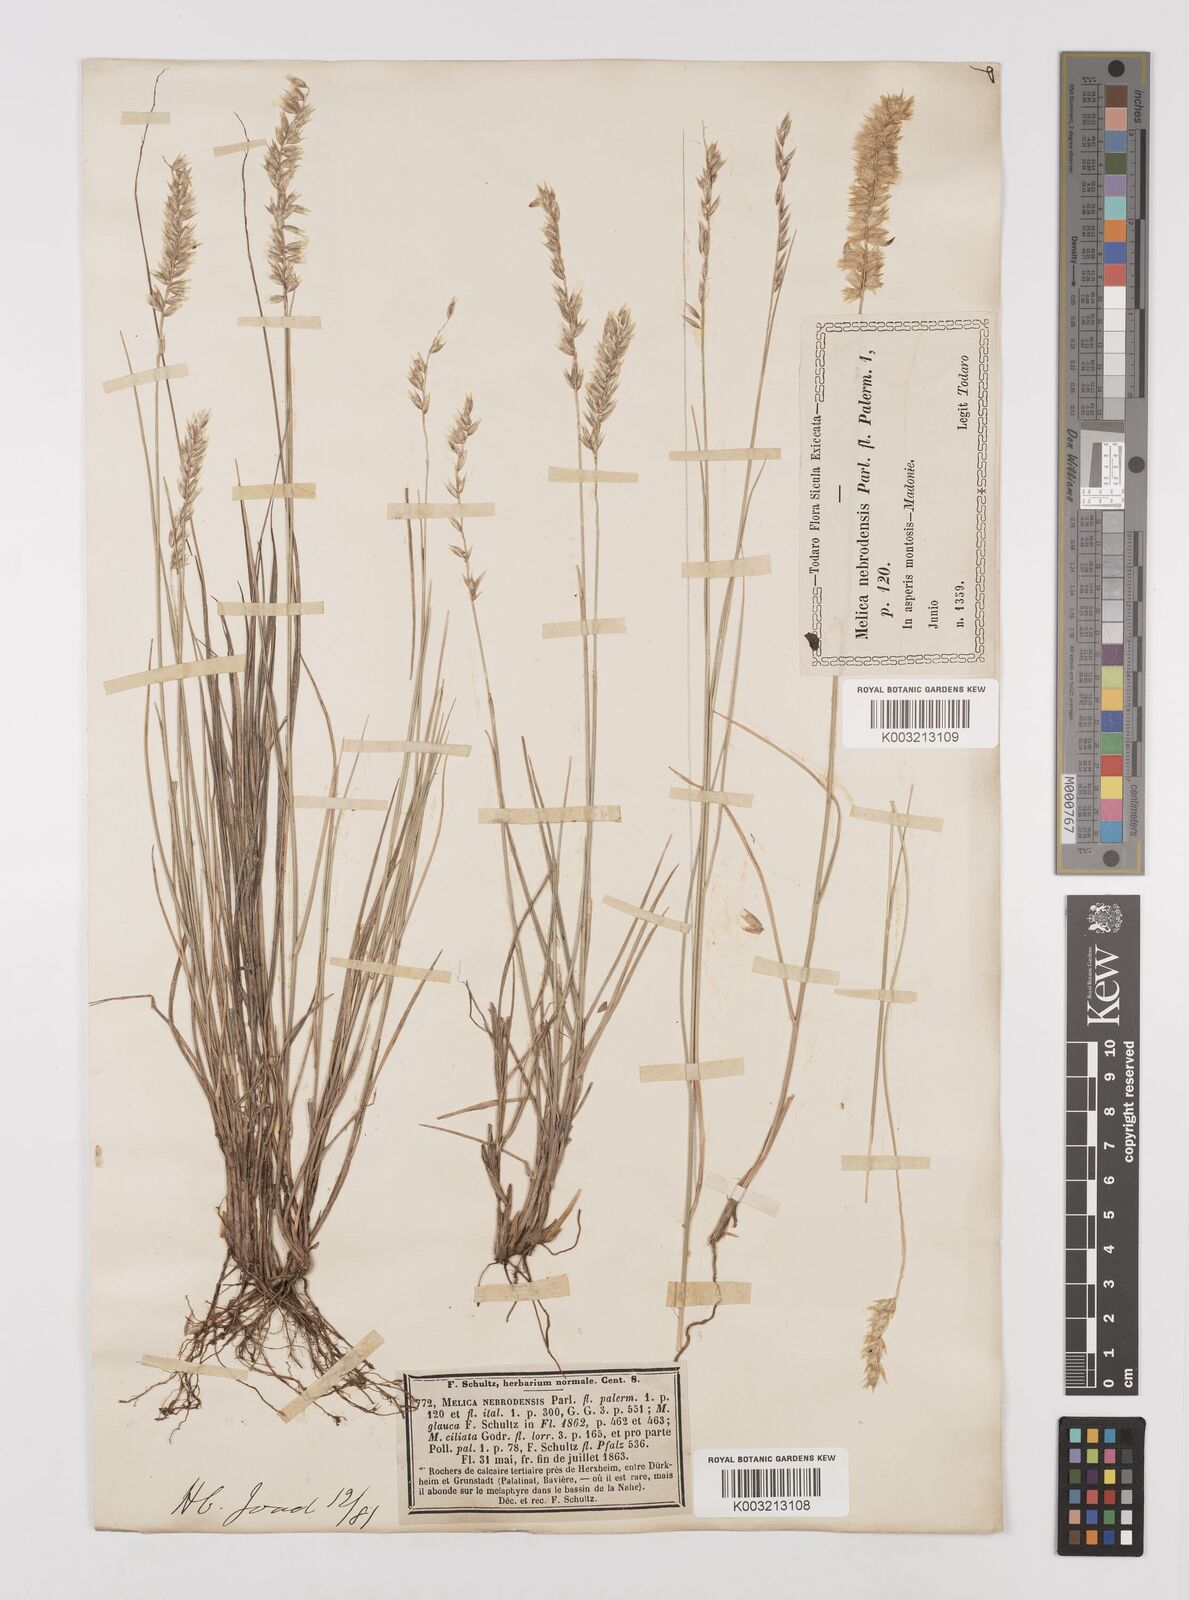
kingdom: Plantae
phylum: Tracheophyta
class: Liliopsida
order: Poales
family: Poaceae
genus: Melica
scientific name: Melica ciliata
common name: Hairy melicgrass
